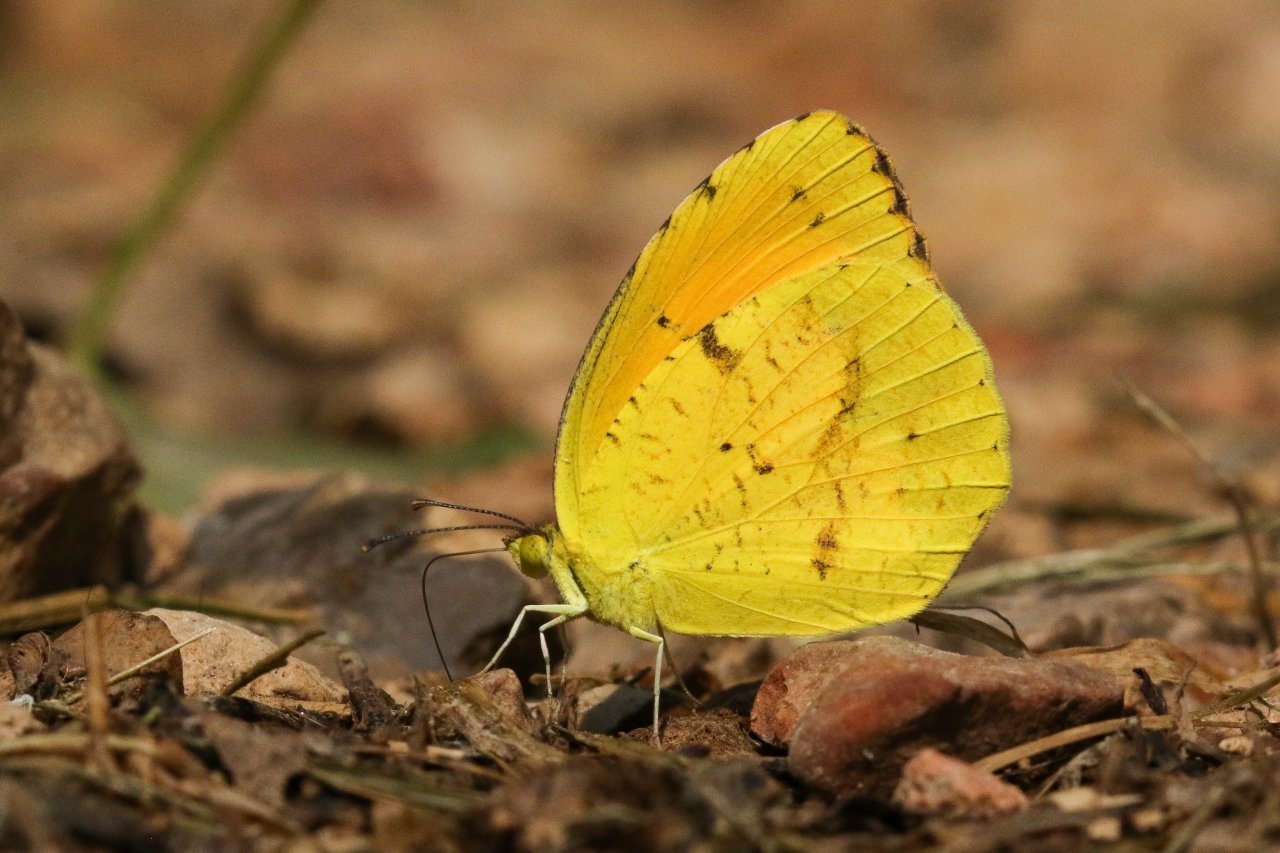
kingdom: Animalia
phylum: Arthropoda
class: Insecta
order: Lepidoptera
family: Pieridae
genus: Abaeis
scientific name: Abaeis nicippe
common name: Sleepy Orange
